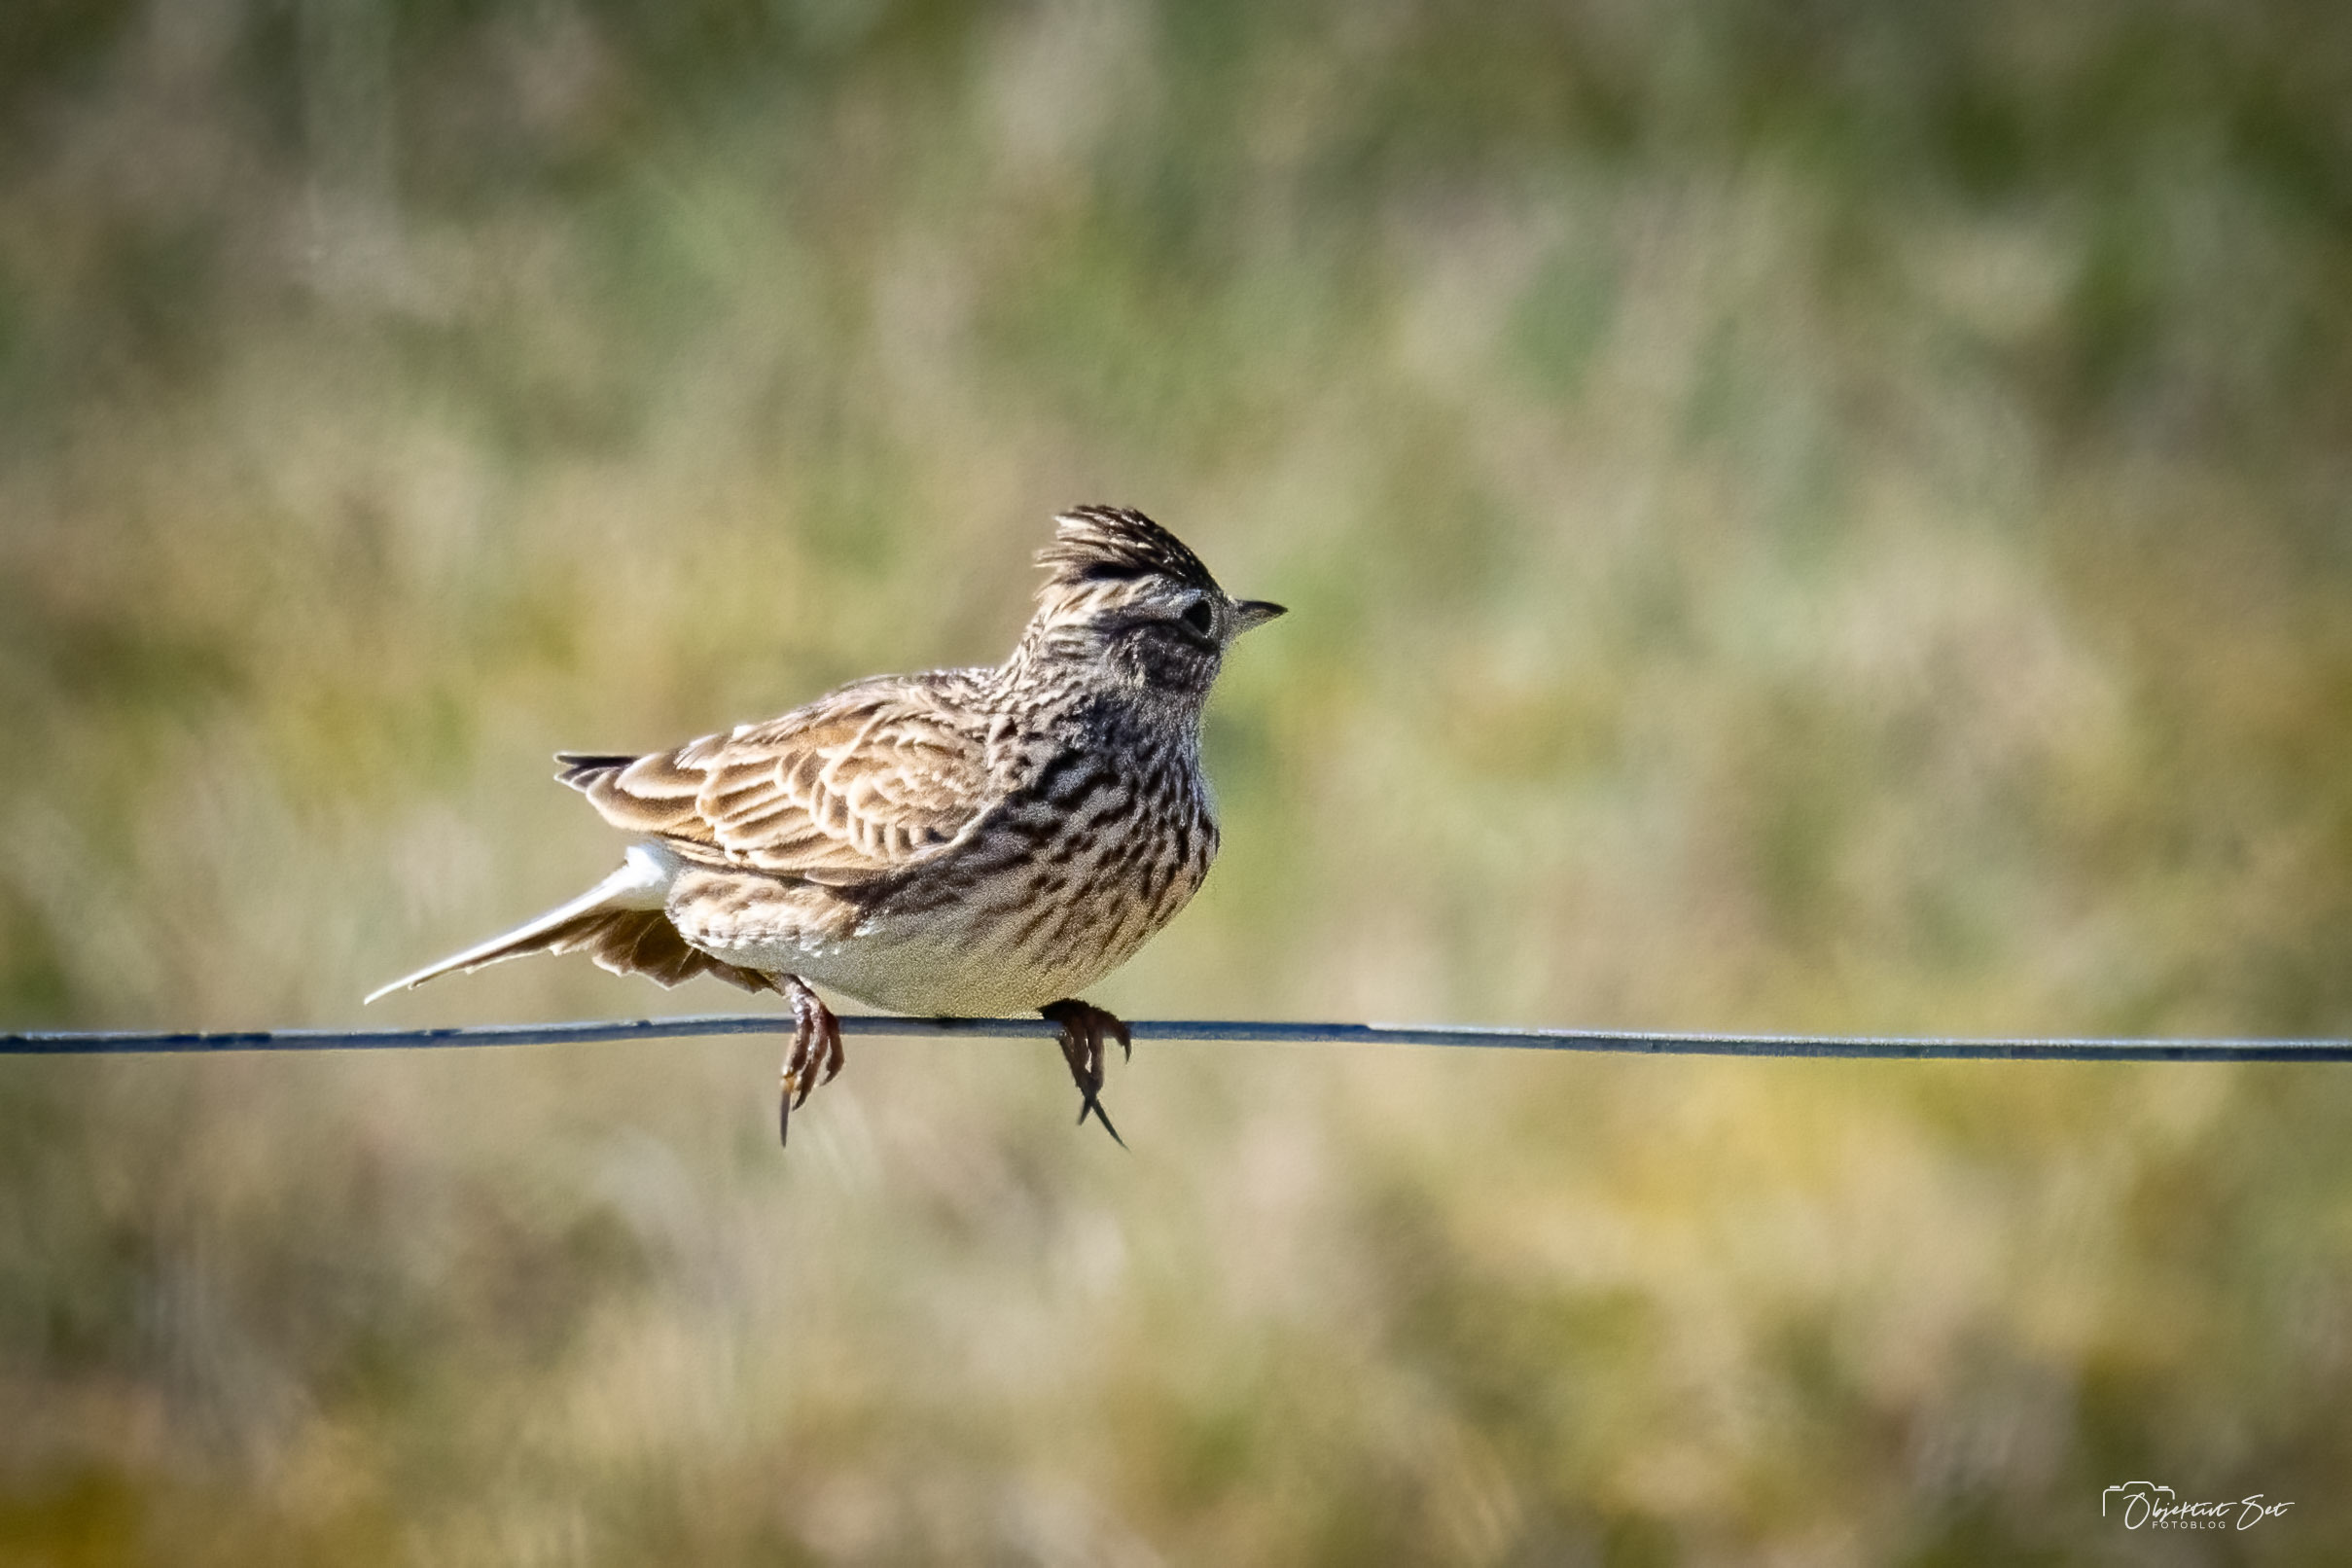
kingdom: Animalia
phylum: Chordata
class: Aves
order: Passeriformes
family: Alaudidae
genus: Alauda
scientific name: Alauda arvensis
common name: Sanglærke
